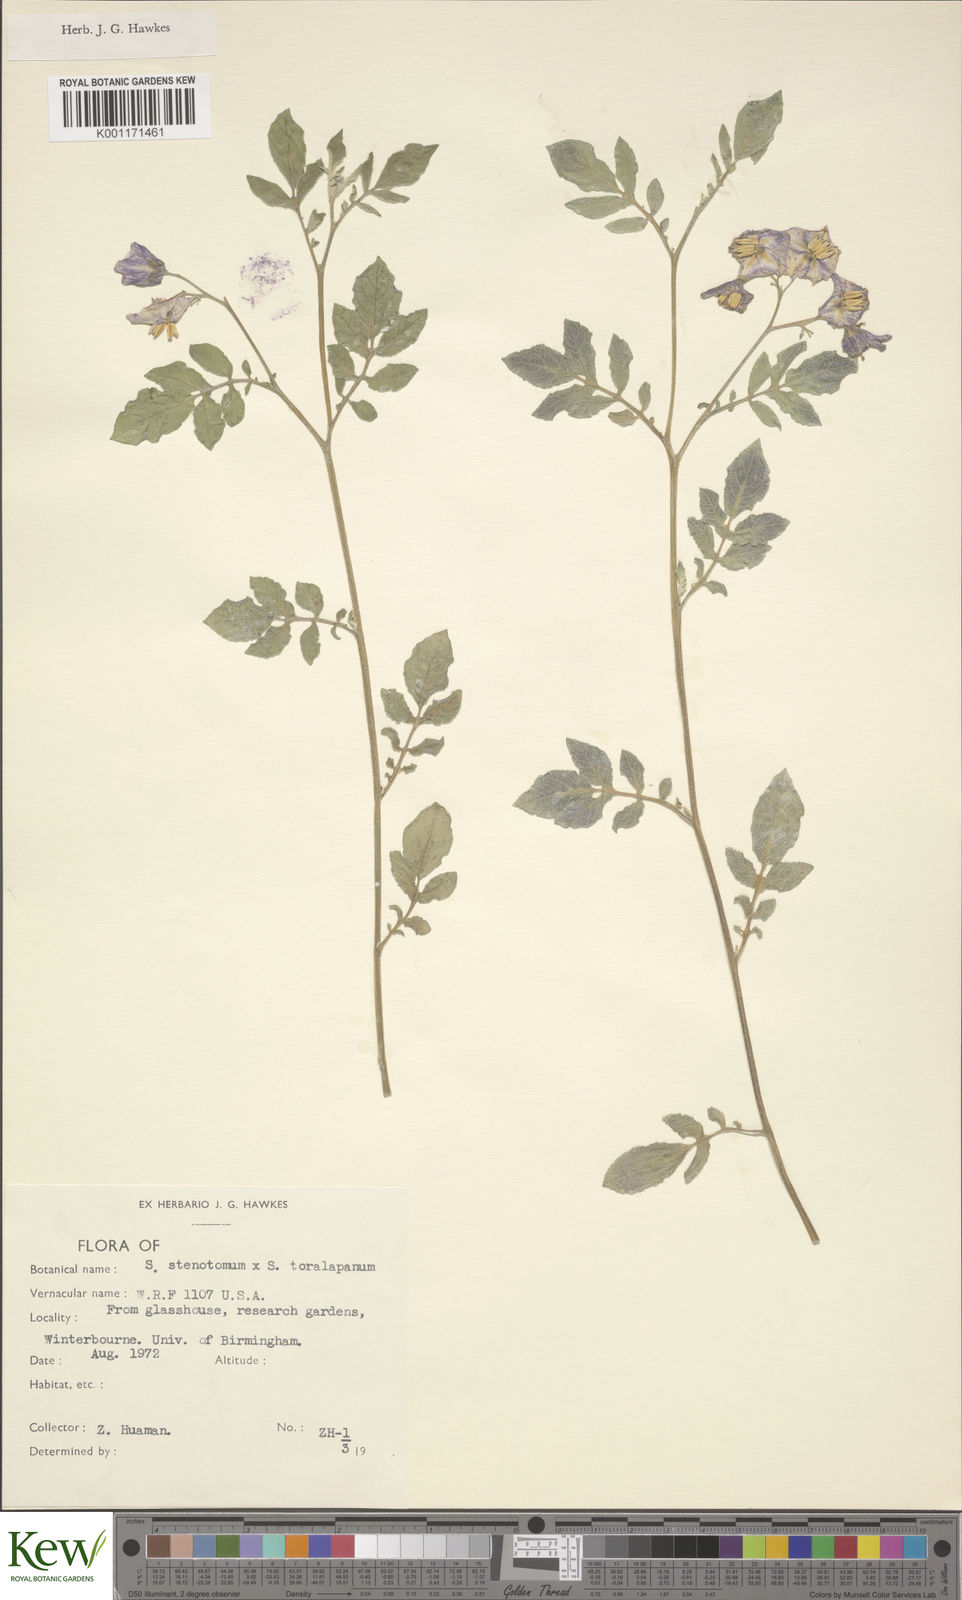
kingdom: Plantae
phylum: Tracheophyta
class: Magnoliopsida
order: Solanales
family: Solanaceae
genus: Solanum
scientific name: Solanum tuberosum
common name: Potato
